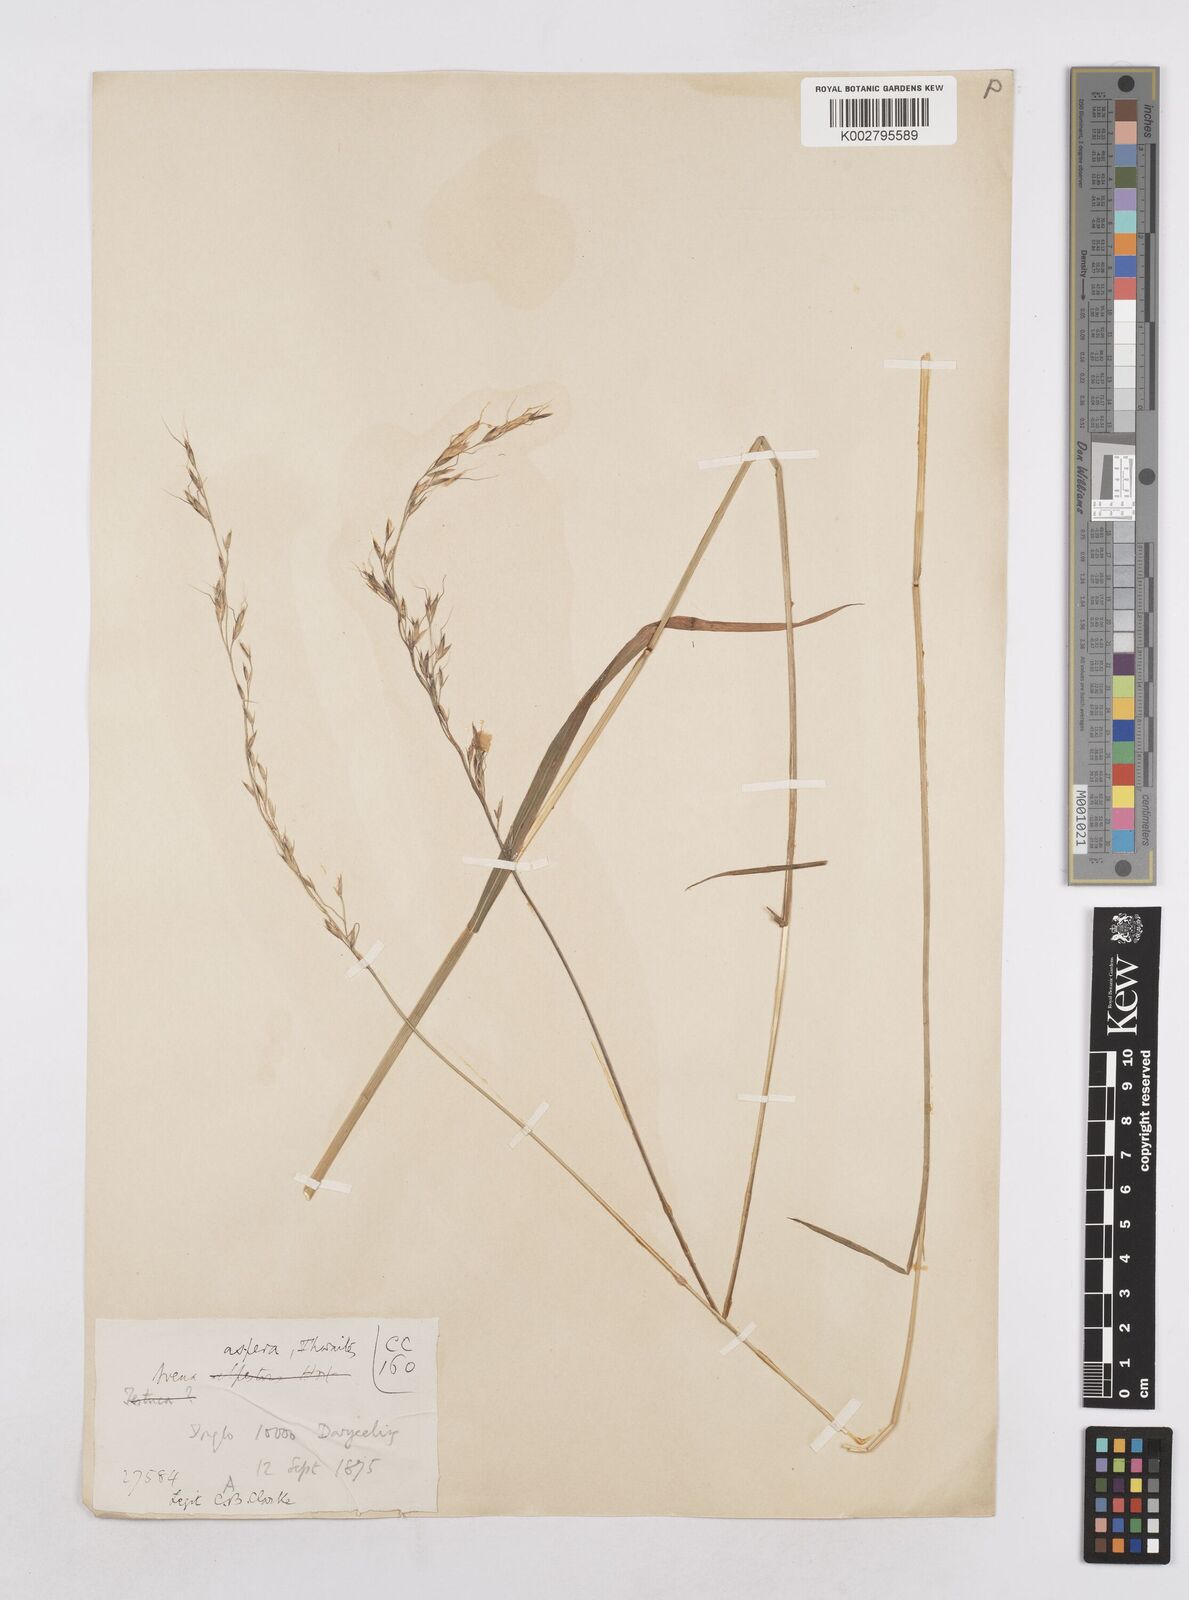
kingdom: Plantae
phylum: Tracheophyta
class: Liliopsida
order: Poales
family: Poaceae
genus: Trisetopsis
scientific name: Trisetopsis junghuhnii
